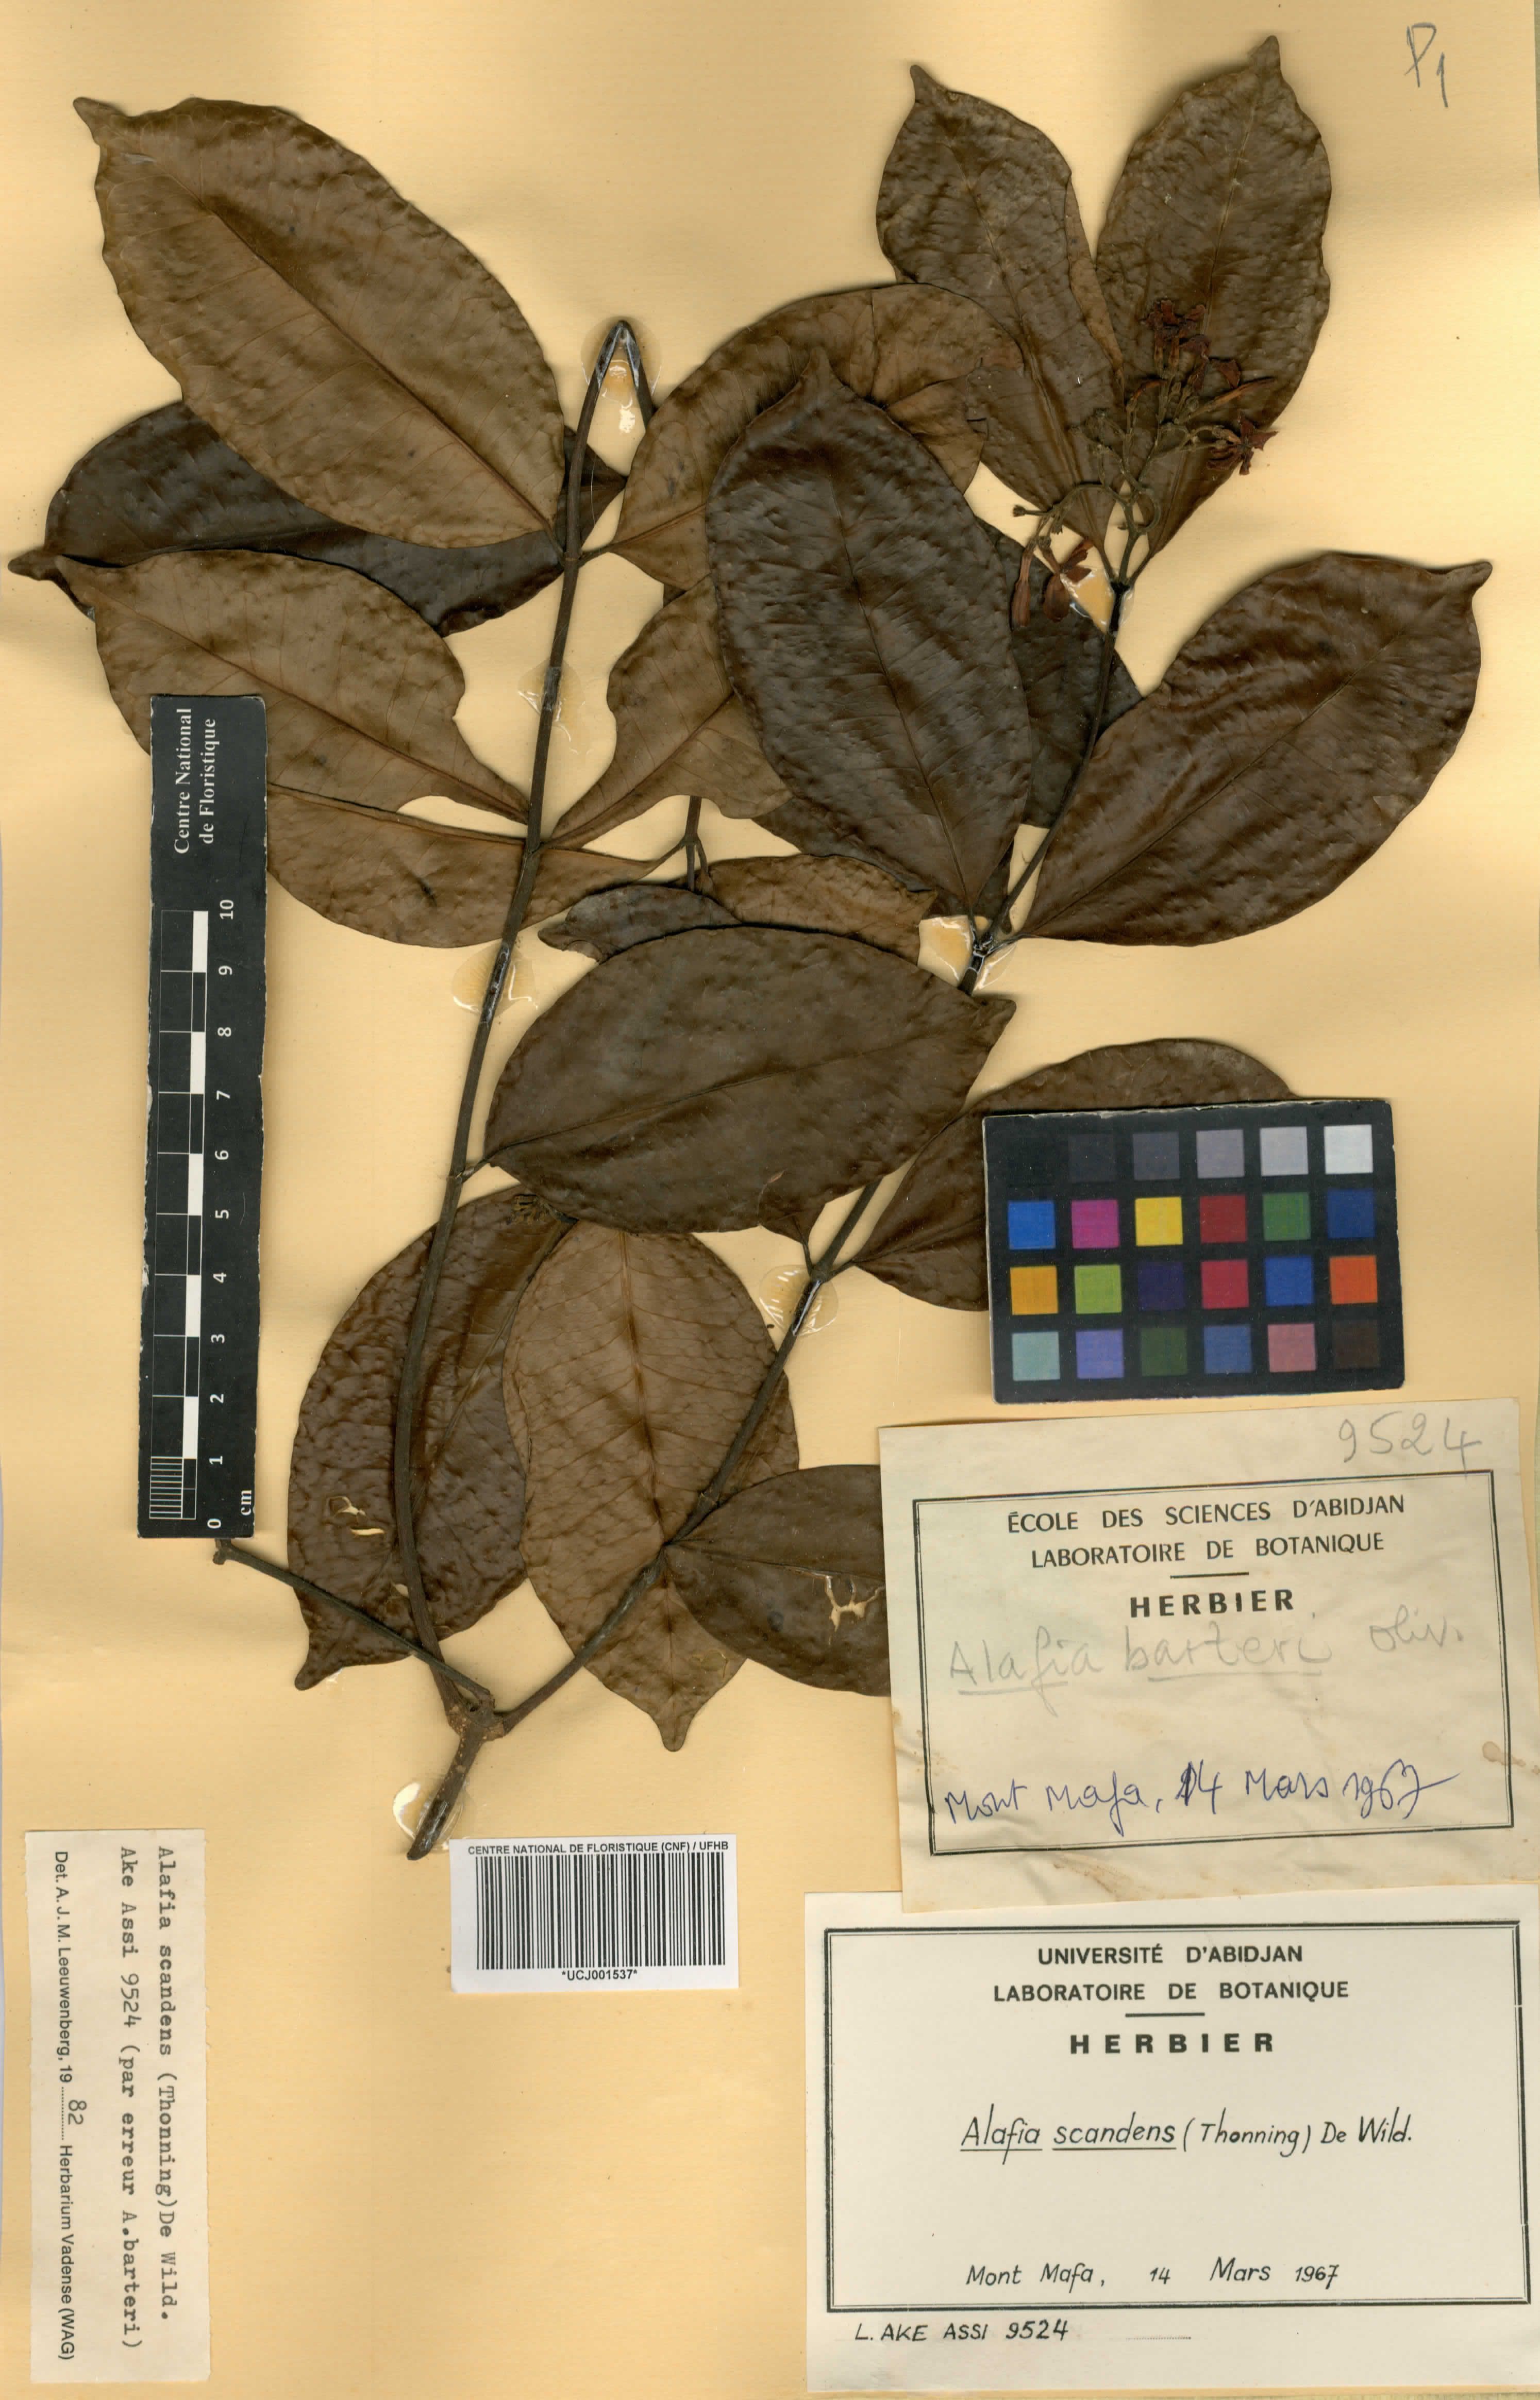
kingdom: Plantae
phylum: Tracheophyta
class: Magnoliopsida
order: Gentianales
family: Apocynaceae
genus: Alafia
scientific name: Alafia scandens
